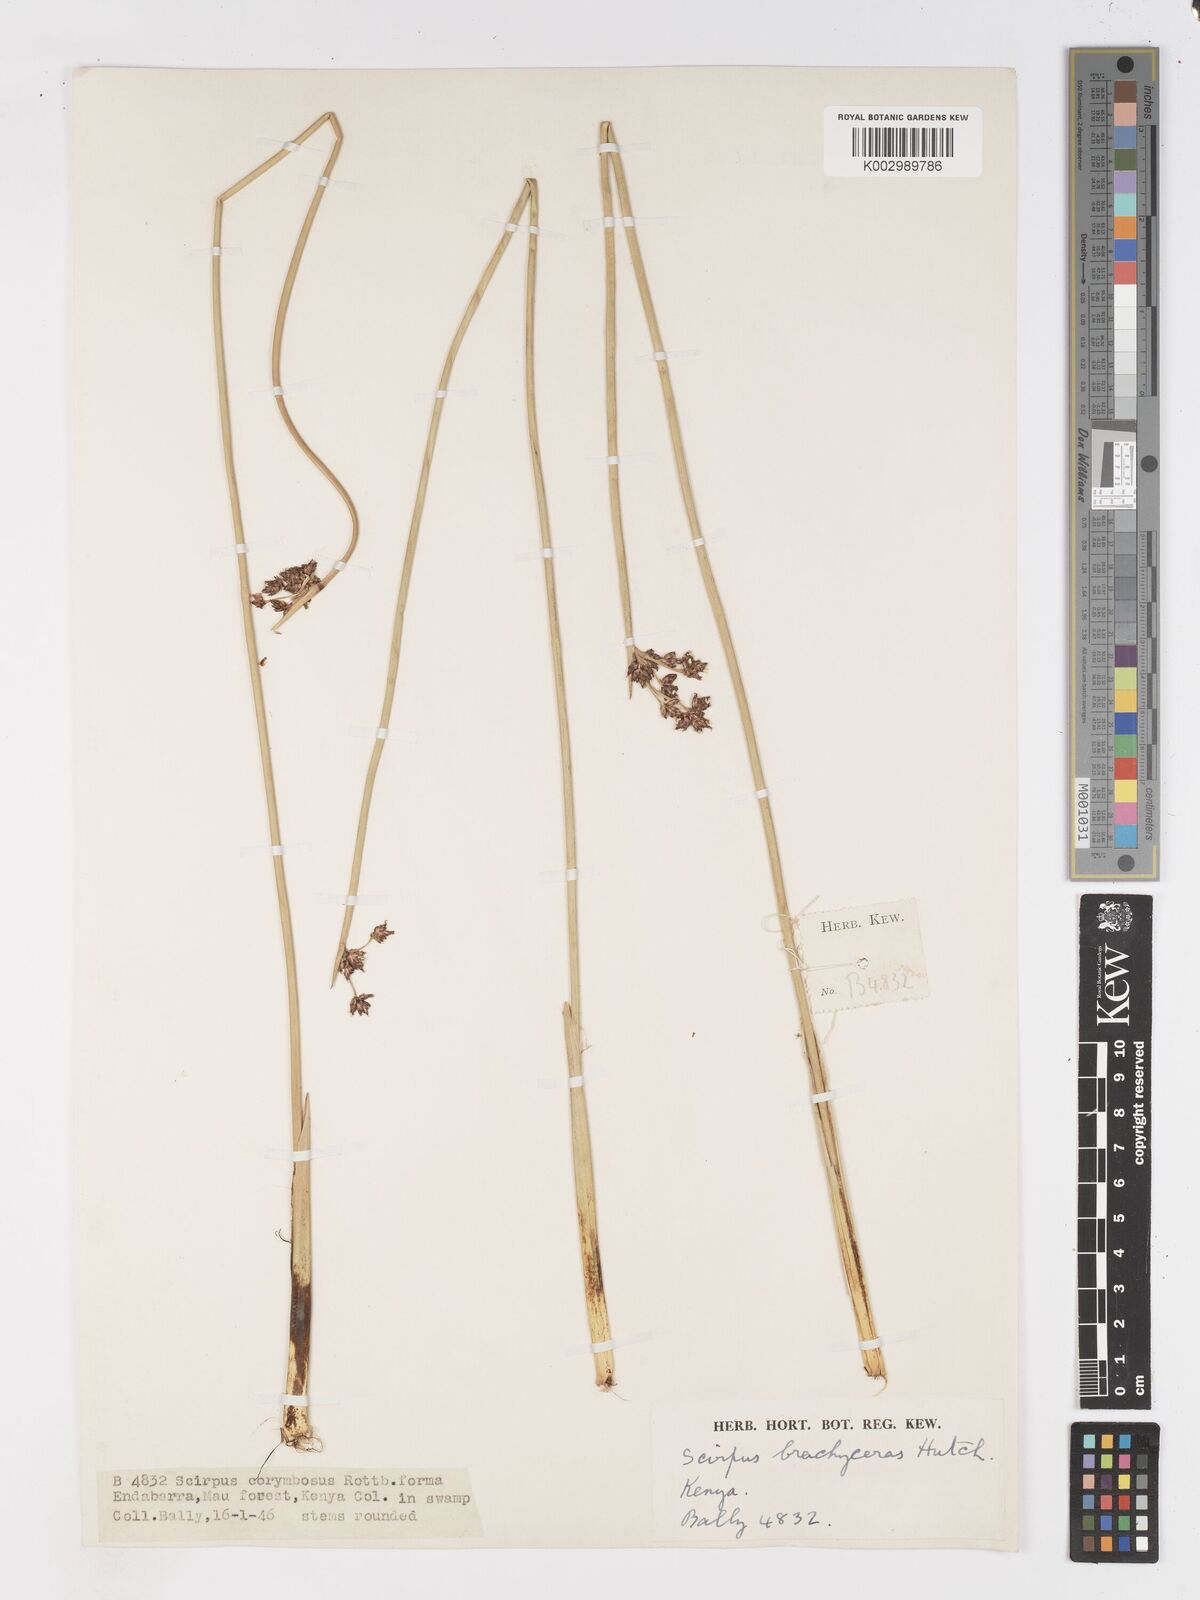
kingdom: Plantae
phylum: Tracheophyta
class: Liliopsida
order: Poales
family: Cyperaceae
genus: Schoenoplectiella
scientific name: Schoenoplectiella brachyceras
